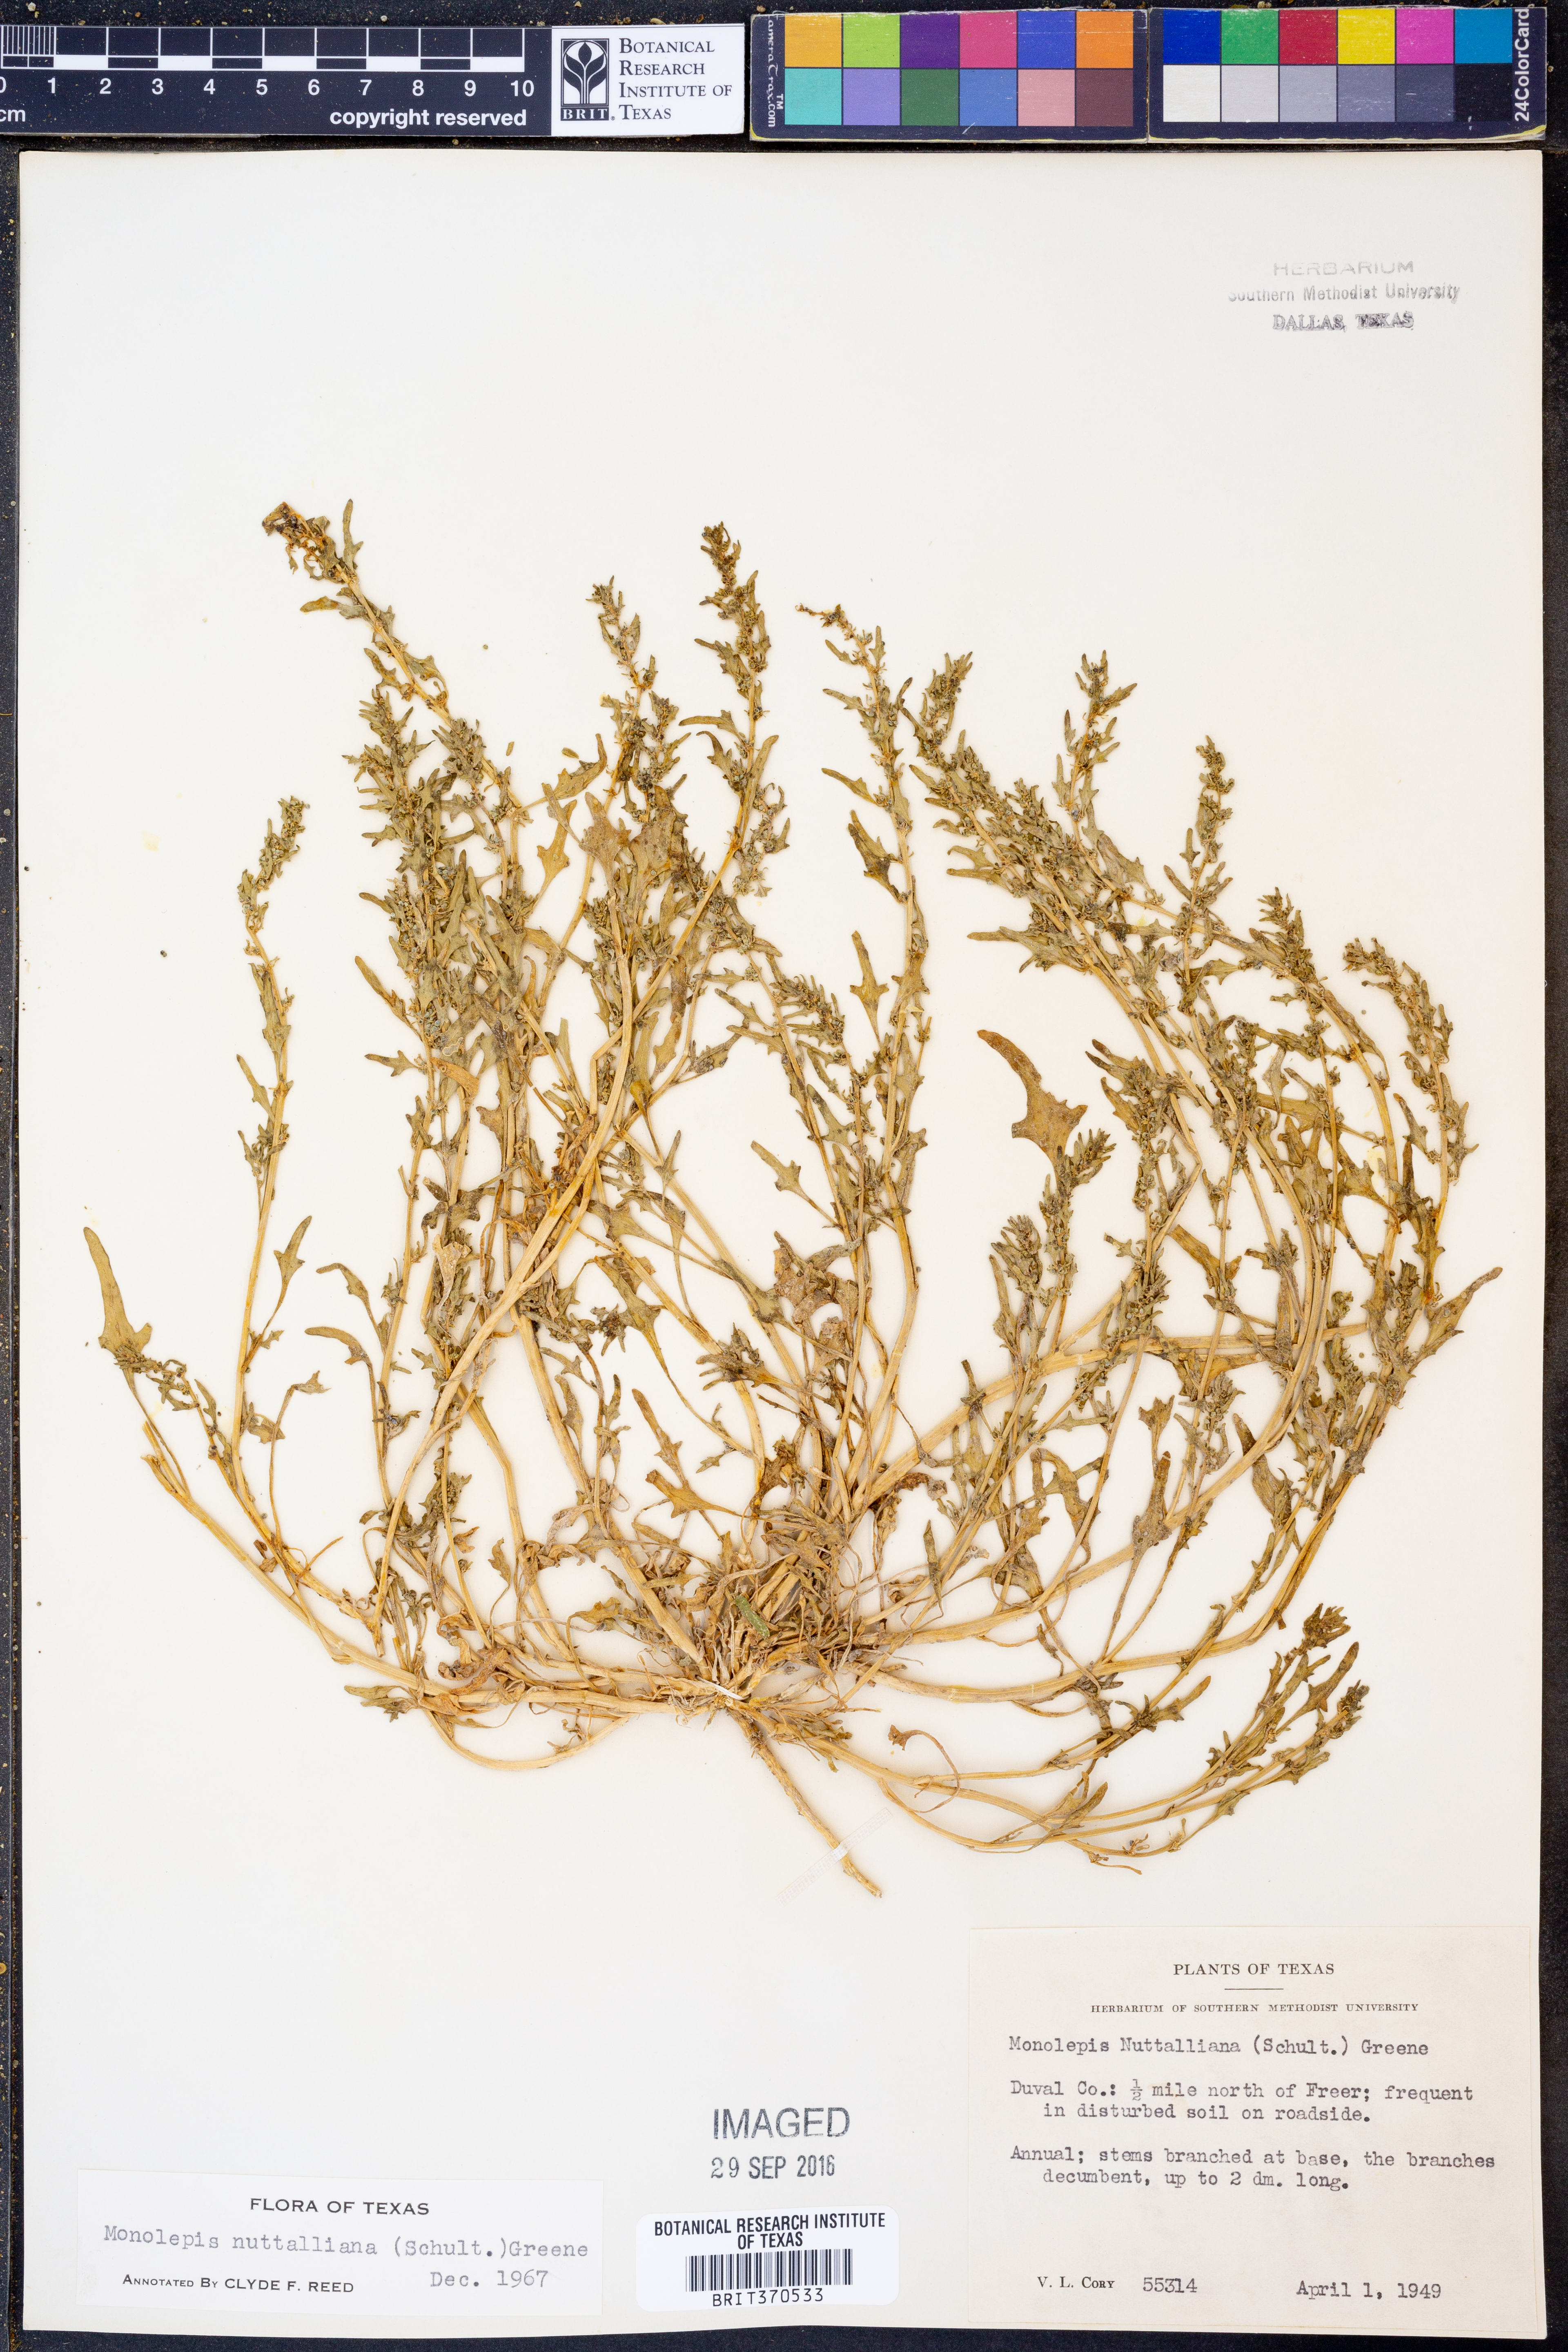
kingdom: Plantae
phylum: Tracheophyta
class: Magnoliopsida
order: Caryophyllales
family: Amaranthaceae
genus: Blitum
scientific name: Blitum nuttallianum
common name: Poverty-weed
